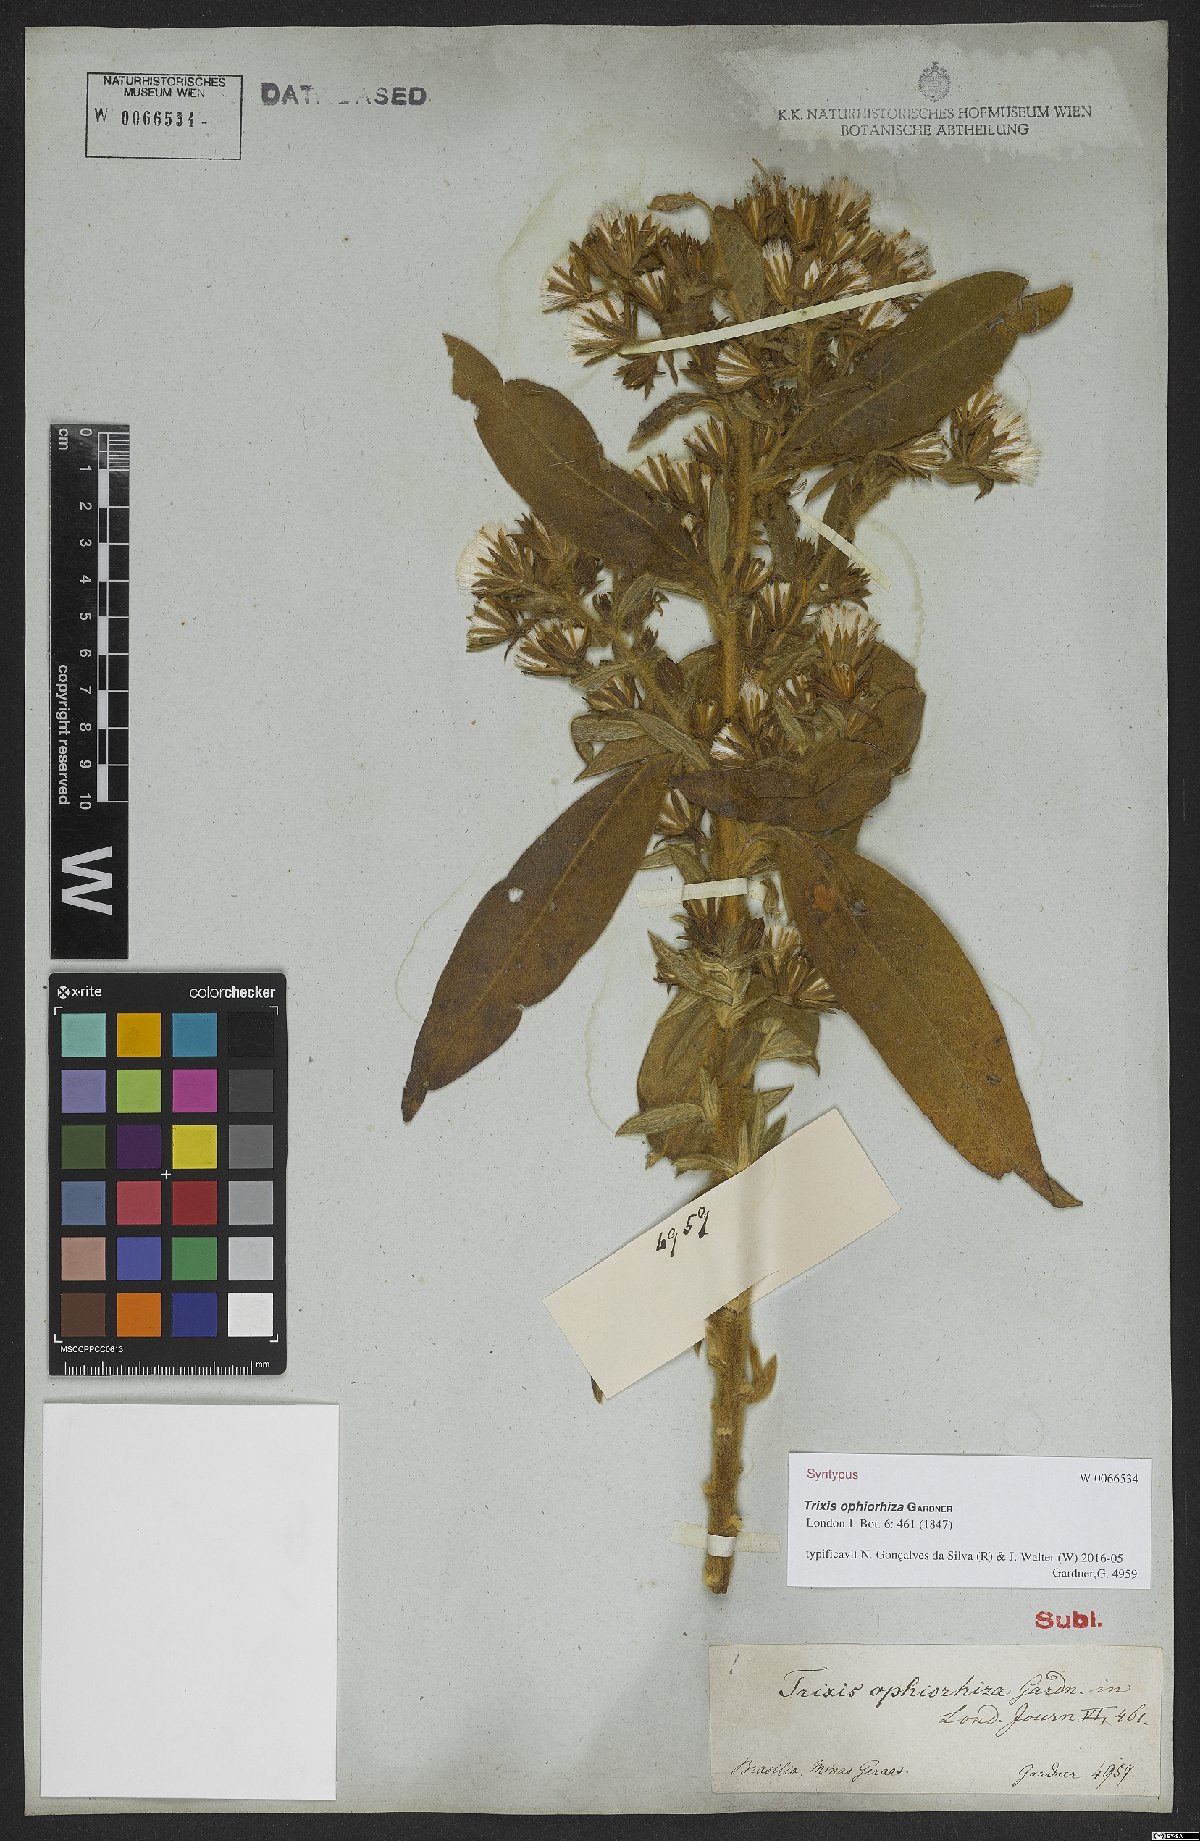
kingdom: Plantae
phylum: Tracheophyta
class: Magnoliopsida
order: Asterales
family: Asteraceae
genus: Trixis
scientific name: Trixis ophiorhiza
